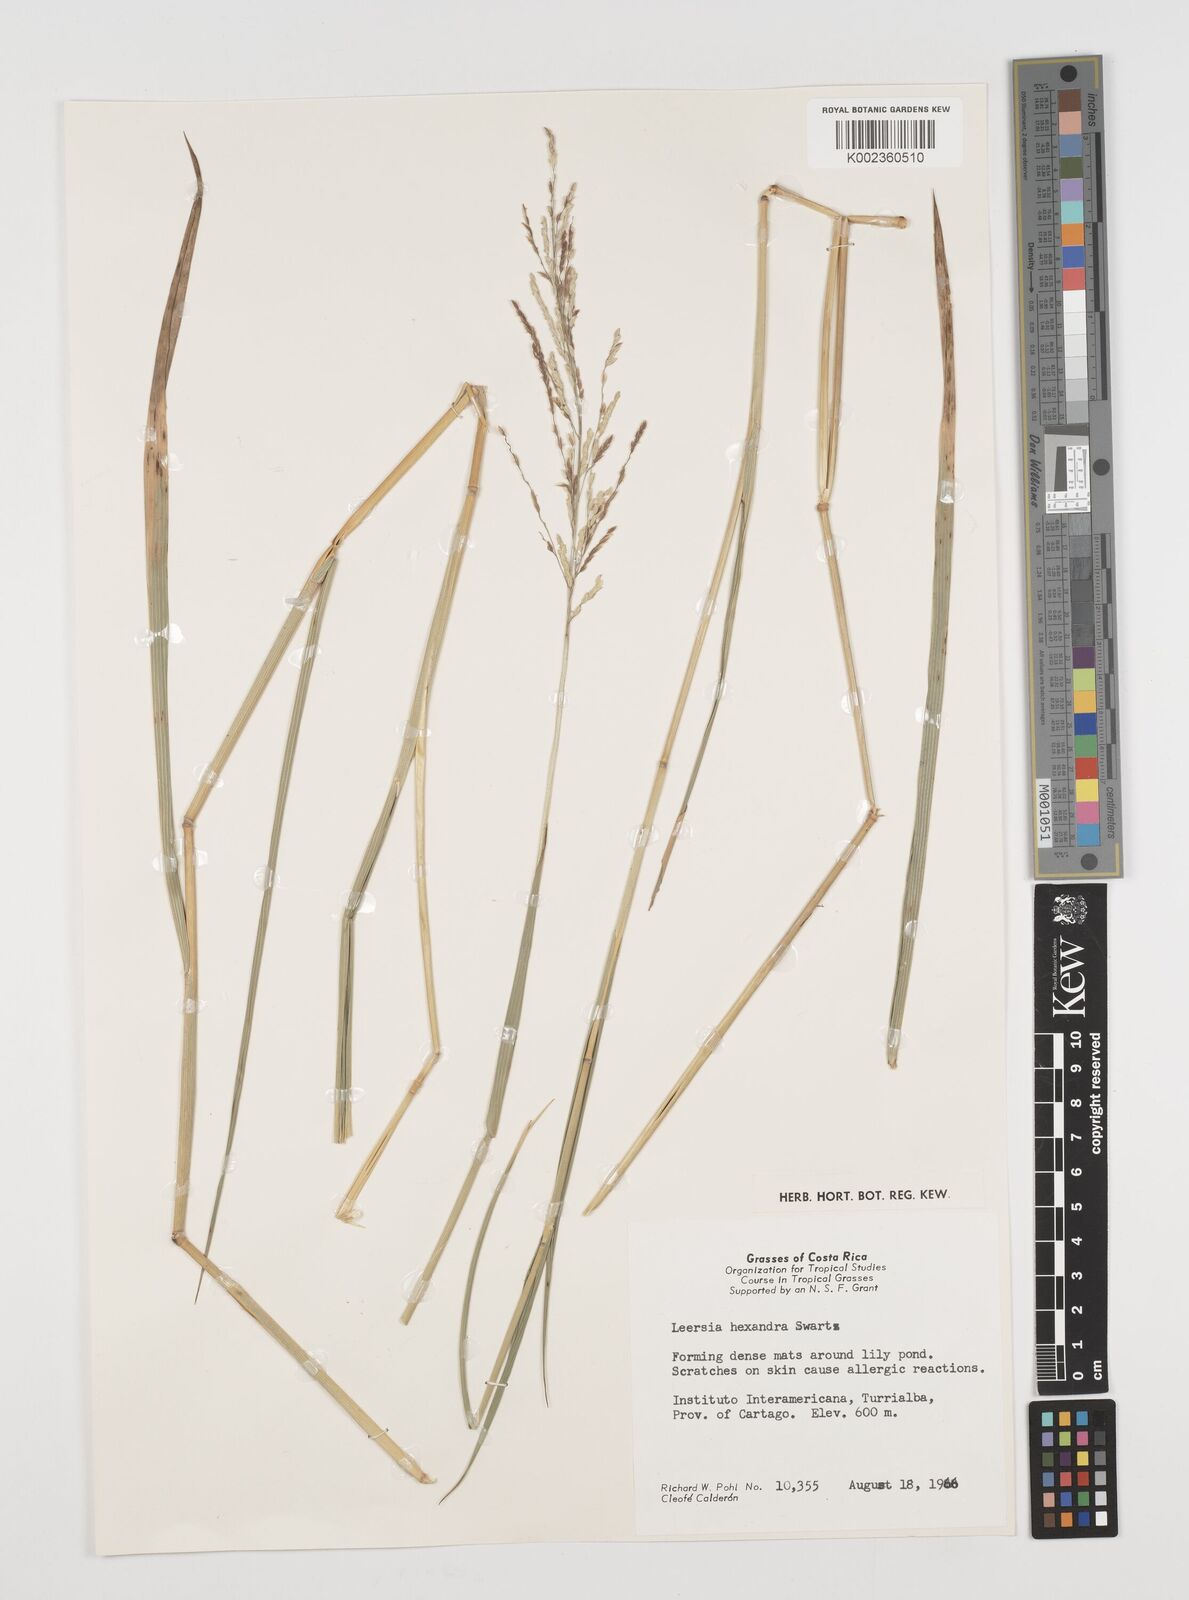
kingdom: Plantae
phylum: Tracheophyta
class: Liliopsida
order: Poales
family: Poaceae
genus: Leersia
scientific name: Leersia hexandra
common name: Southern cut grass
